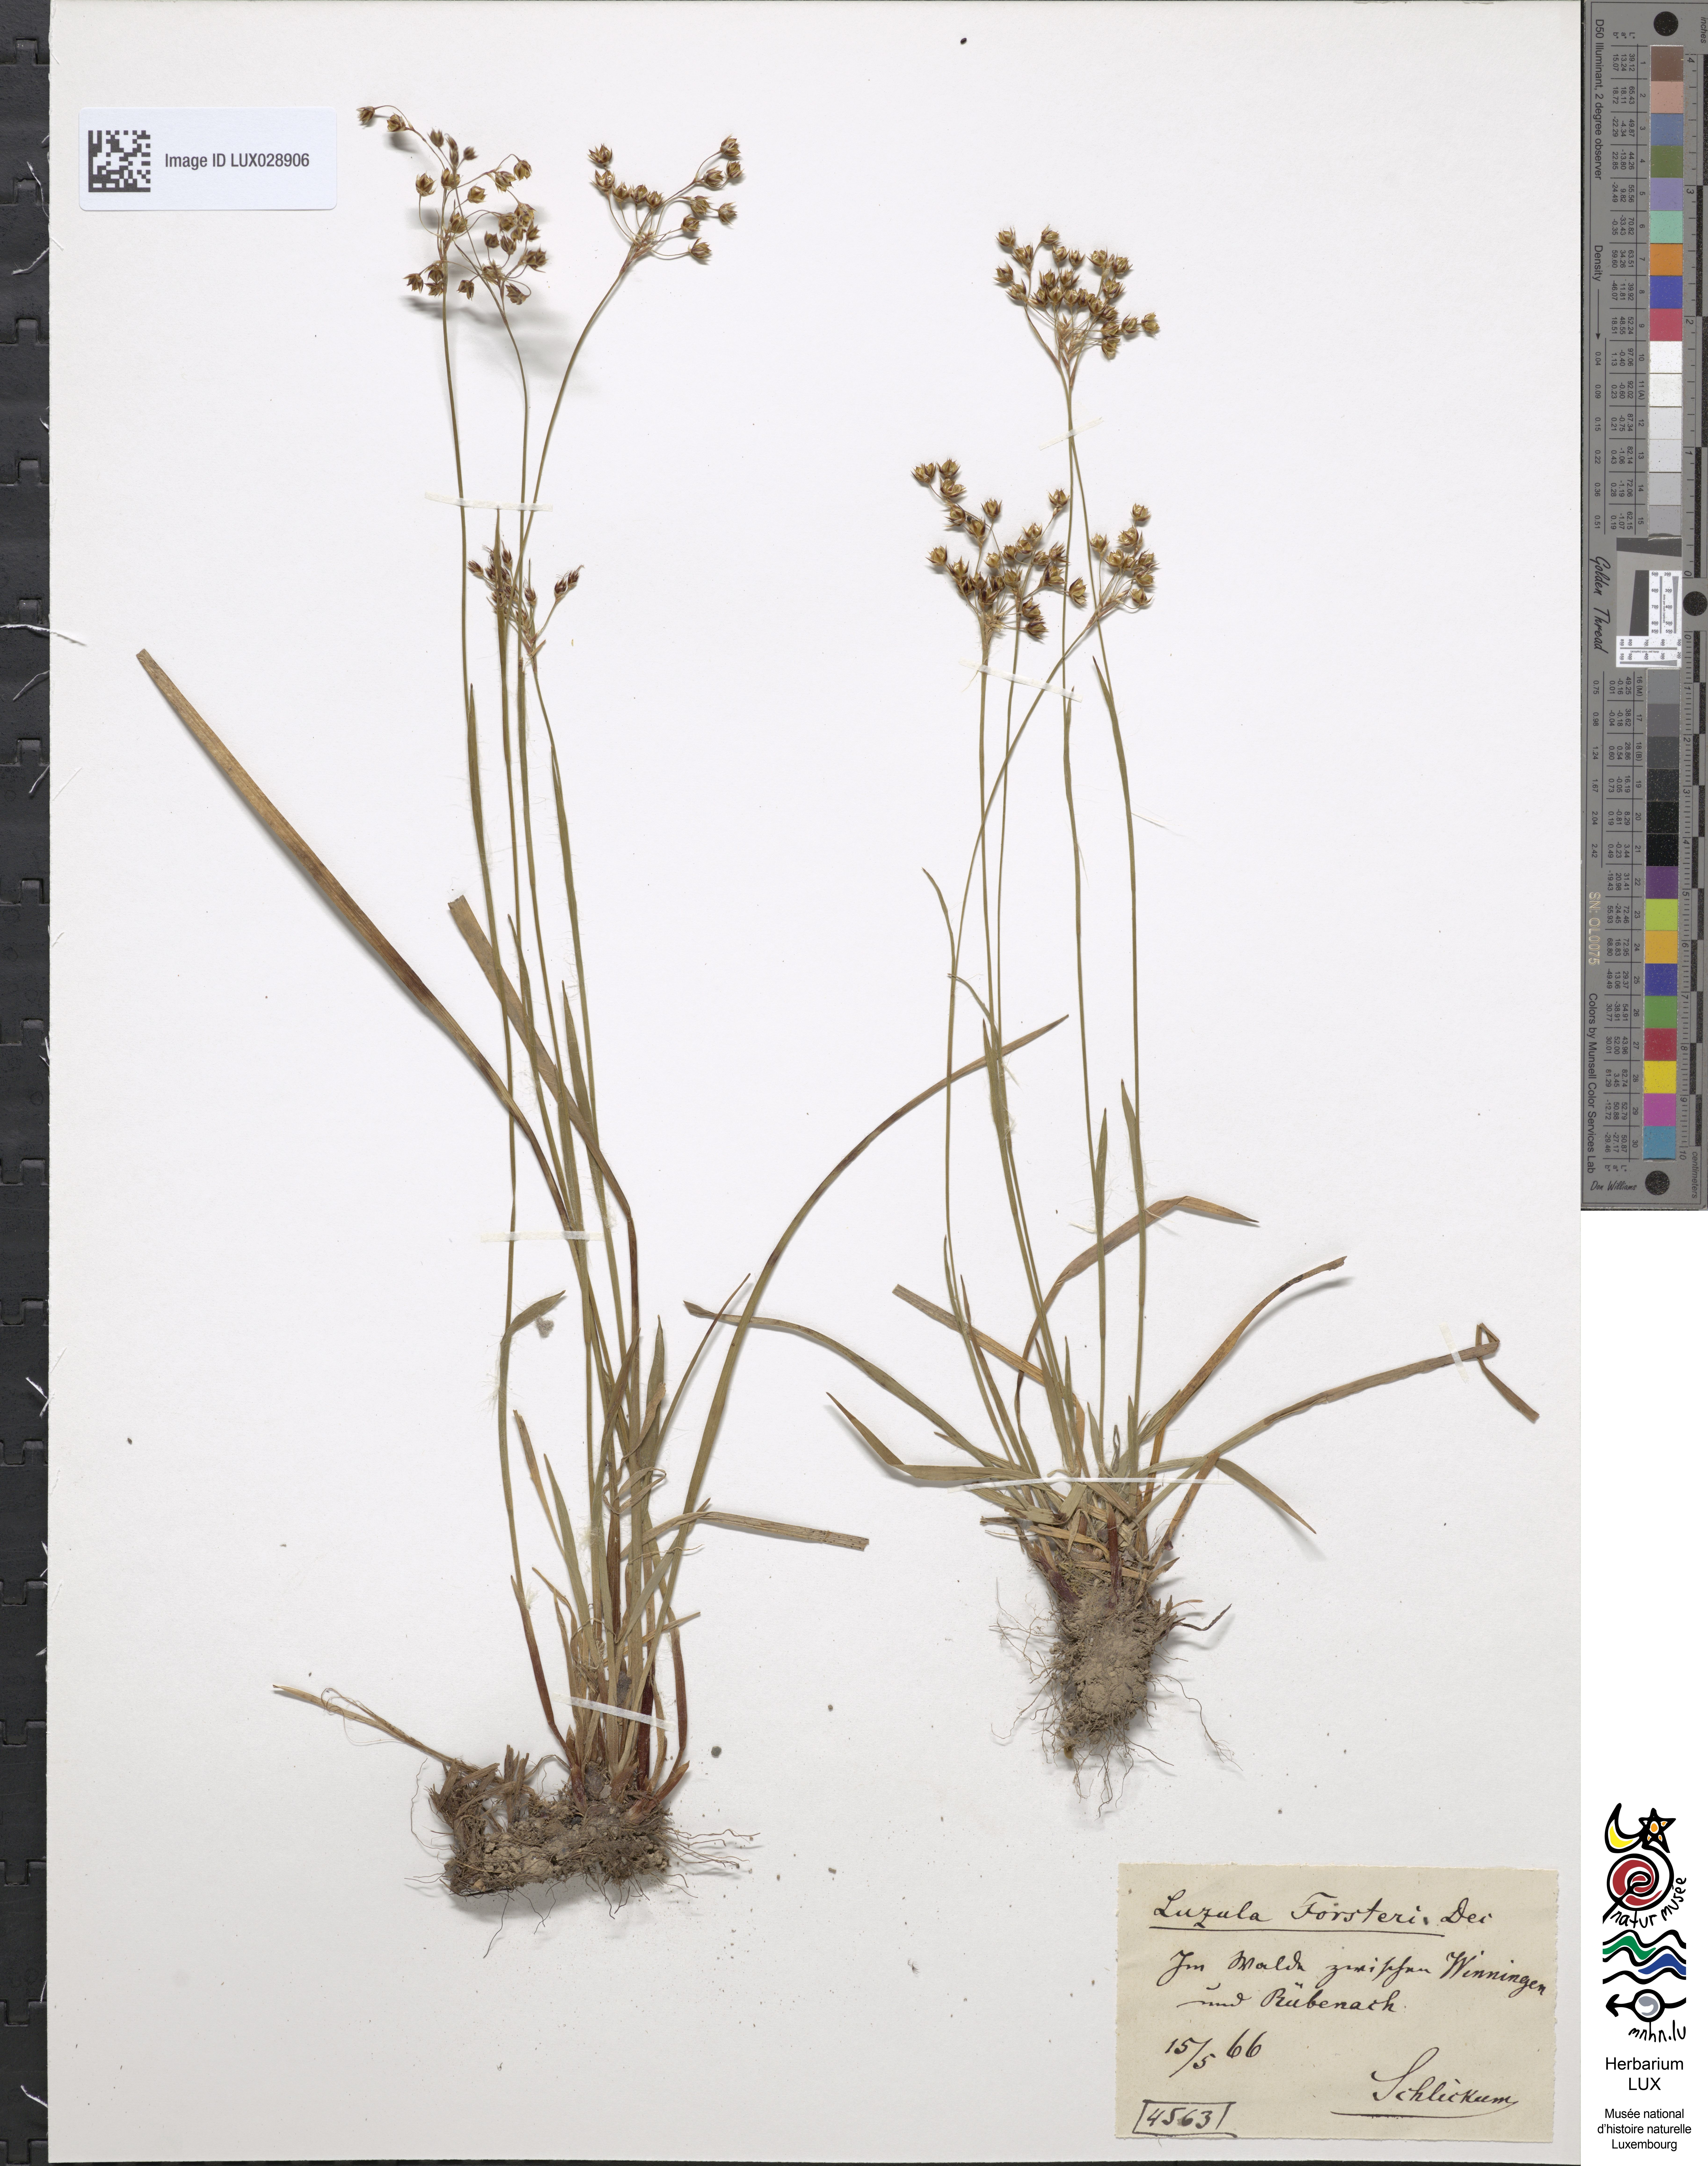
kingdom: Plantae
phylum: Tracheophyta
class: Liliopsida
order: Poales
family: Juncaceae
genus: Luzula
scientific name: Luzula forsteri
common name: Southern wood-rush
